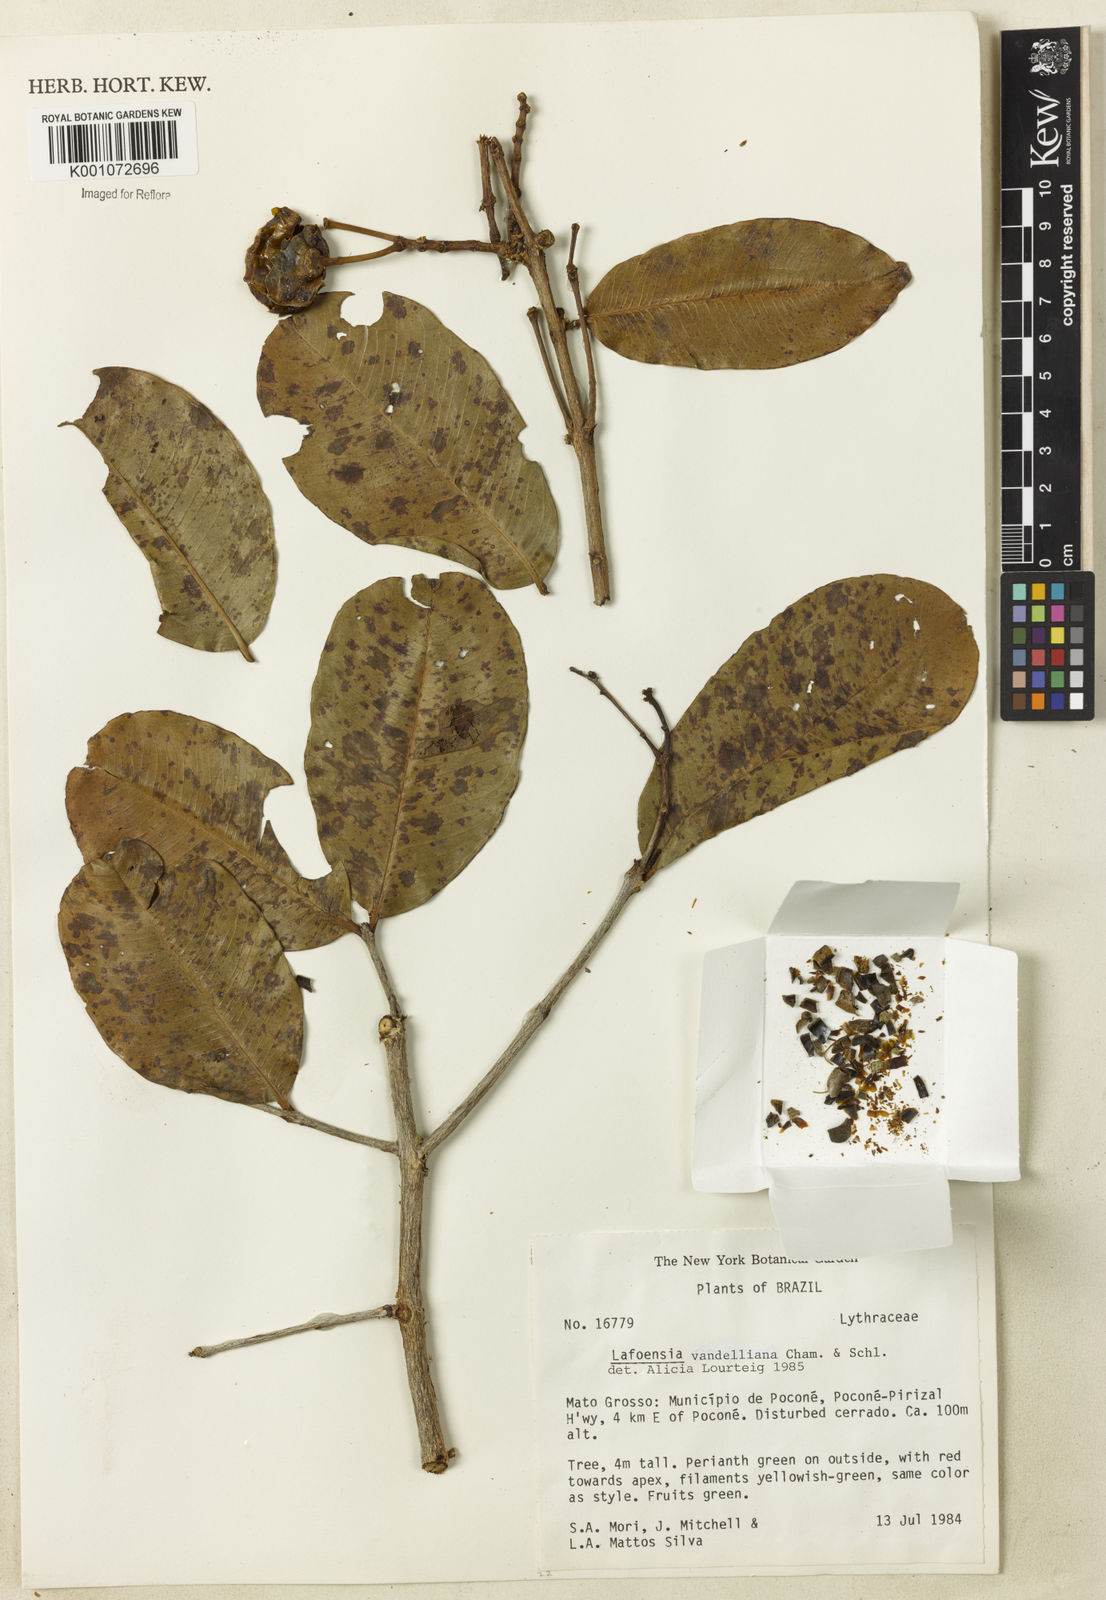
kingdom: Plantae
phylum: Tracheophyta
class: Magnoliopsida
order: Myrtales
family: Lythraceae
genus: Lafoensia
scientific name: Lafoensia vandelliana
